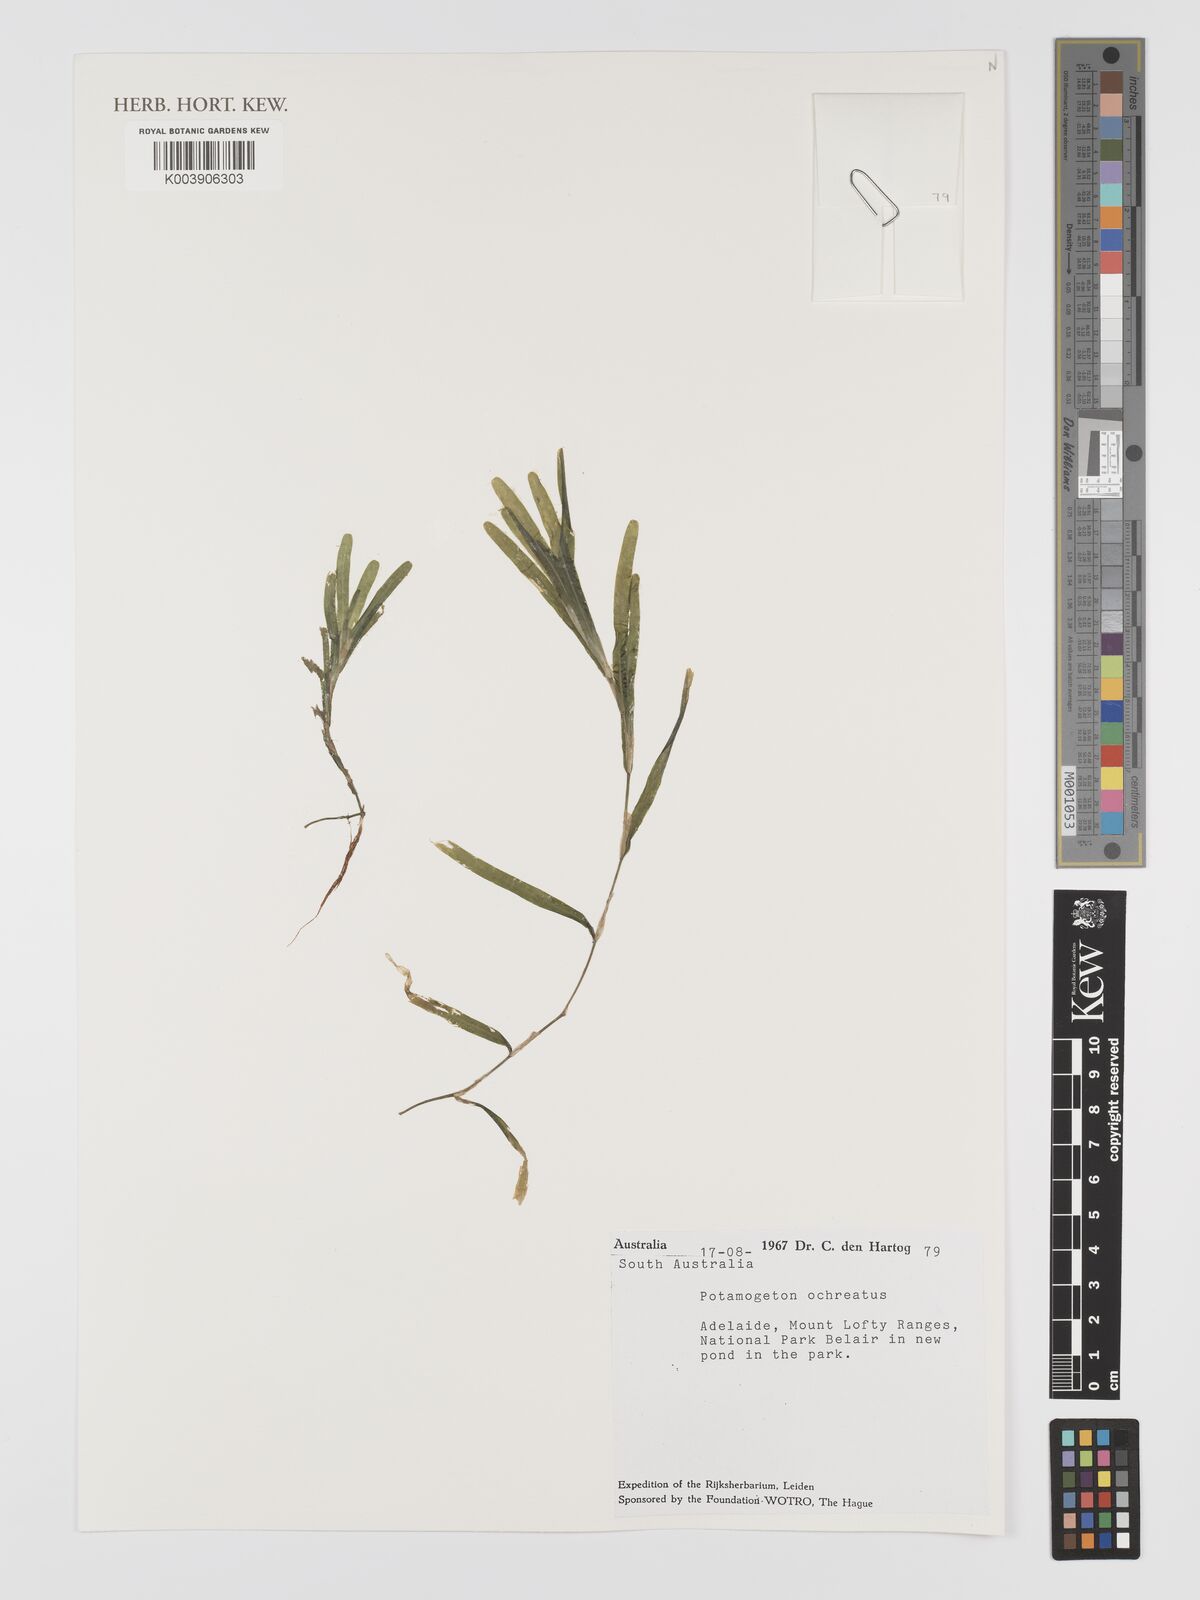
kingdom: Plantae
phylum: Tracheophyta
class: Liliopsida
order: Alismatales
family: Potamogetonaceae
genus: Potamogeton
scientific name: Potamogeton ochreatus
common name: Blunt pondweed
